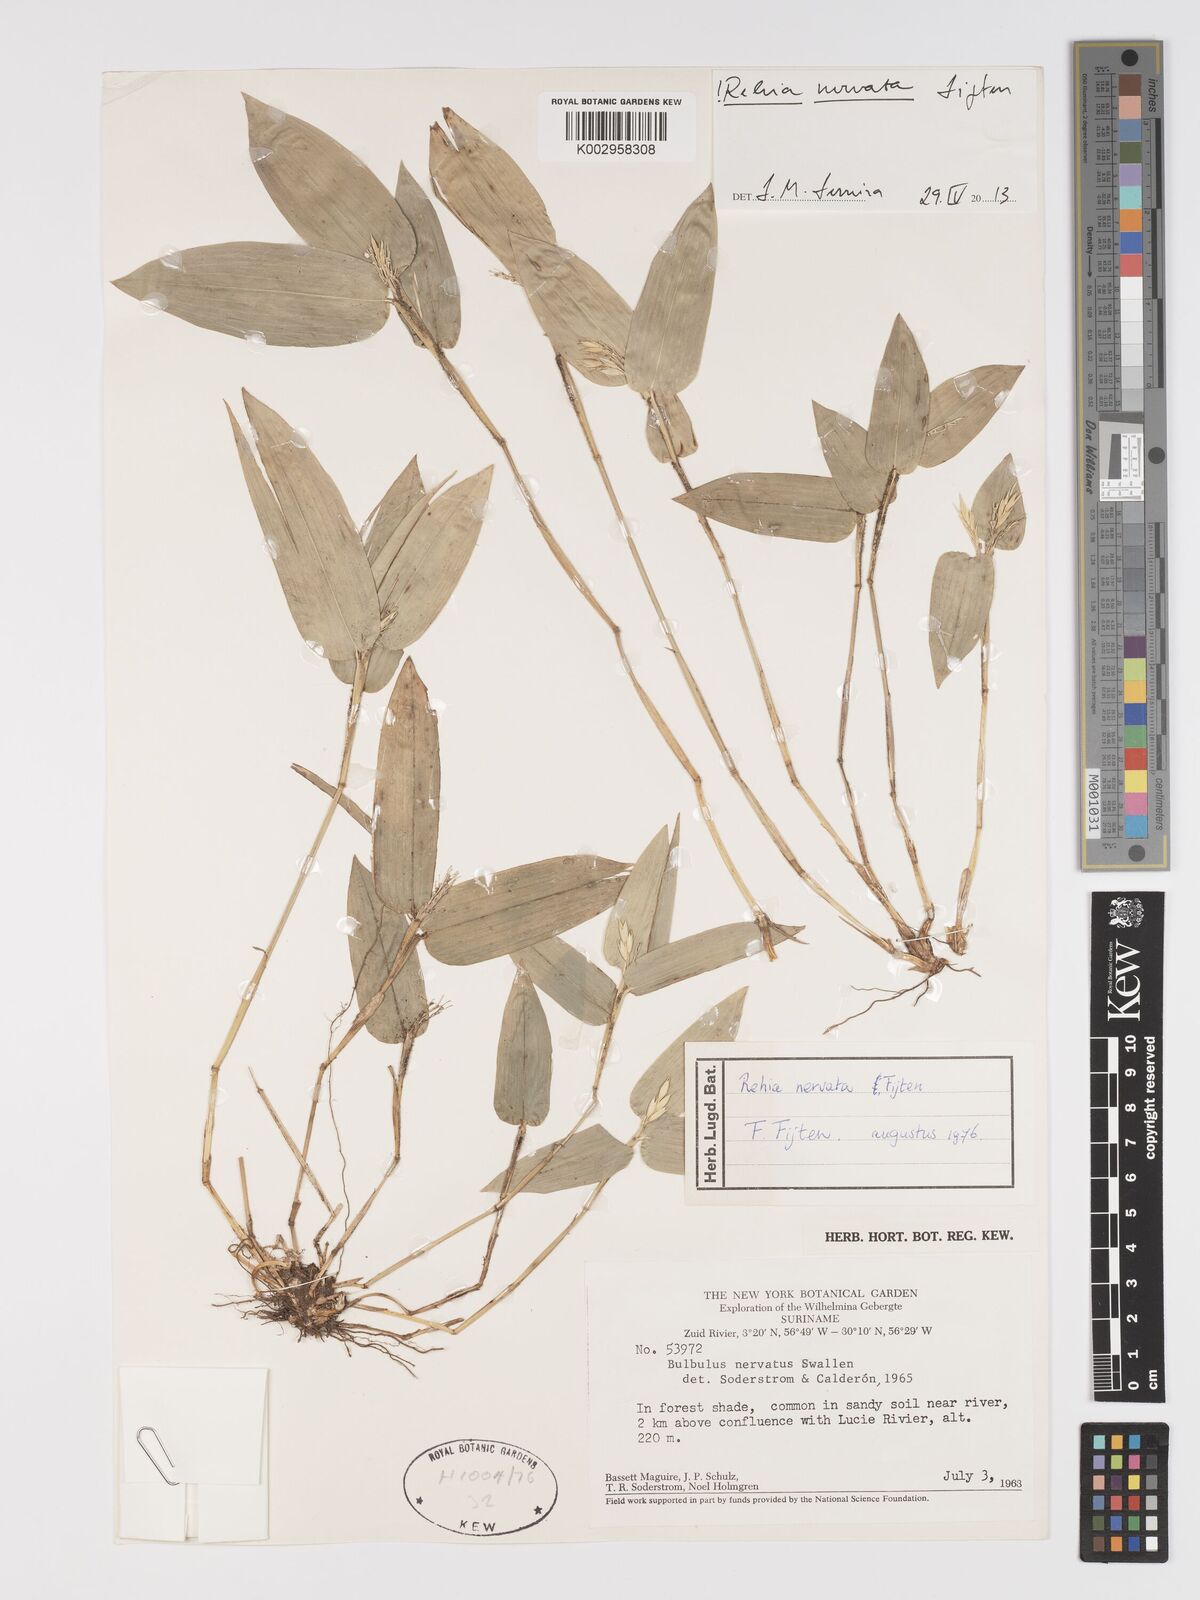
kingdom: Plantae
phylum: Tracheophyta
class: Liliopsida
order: Poales
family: Poaceae
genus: Rehia
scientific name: Rehia nervata
